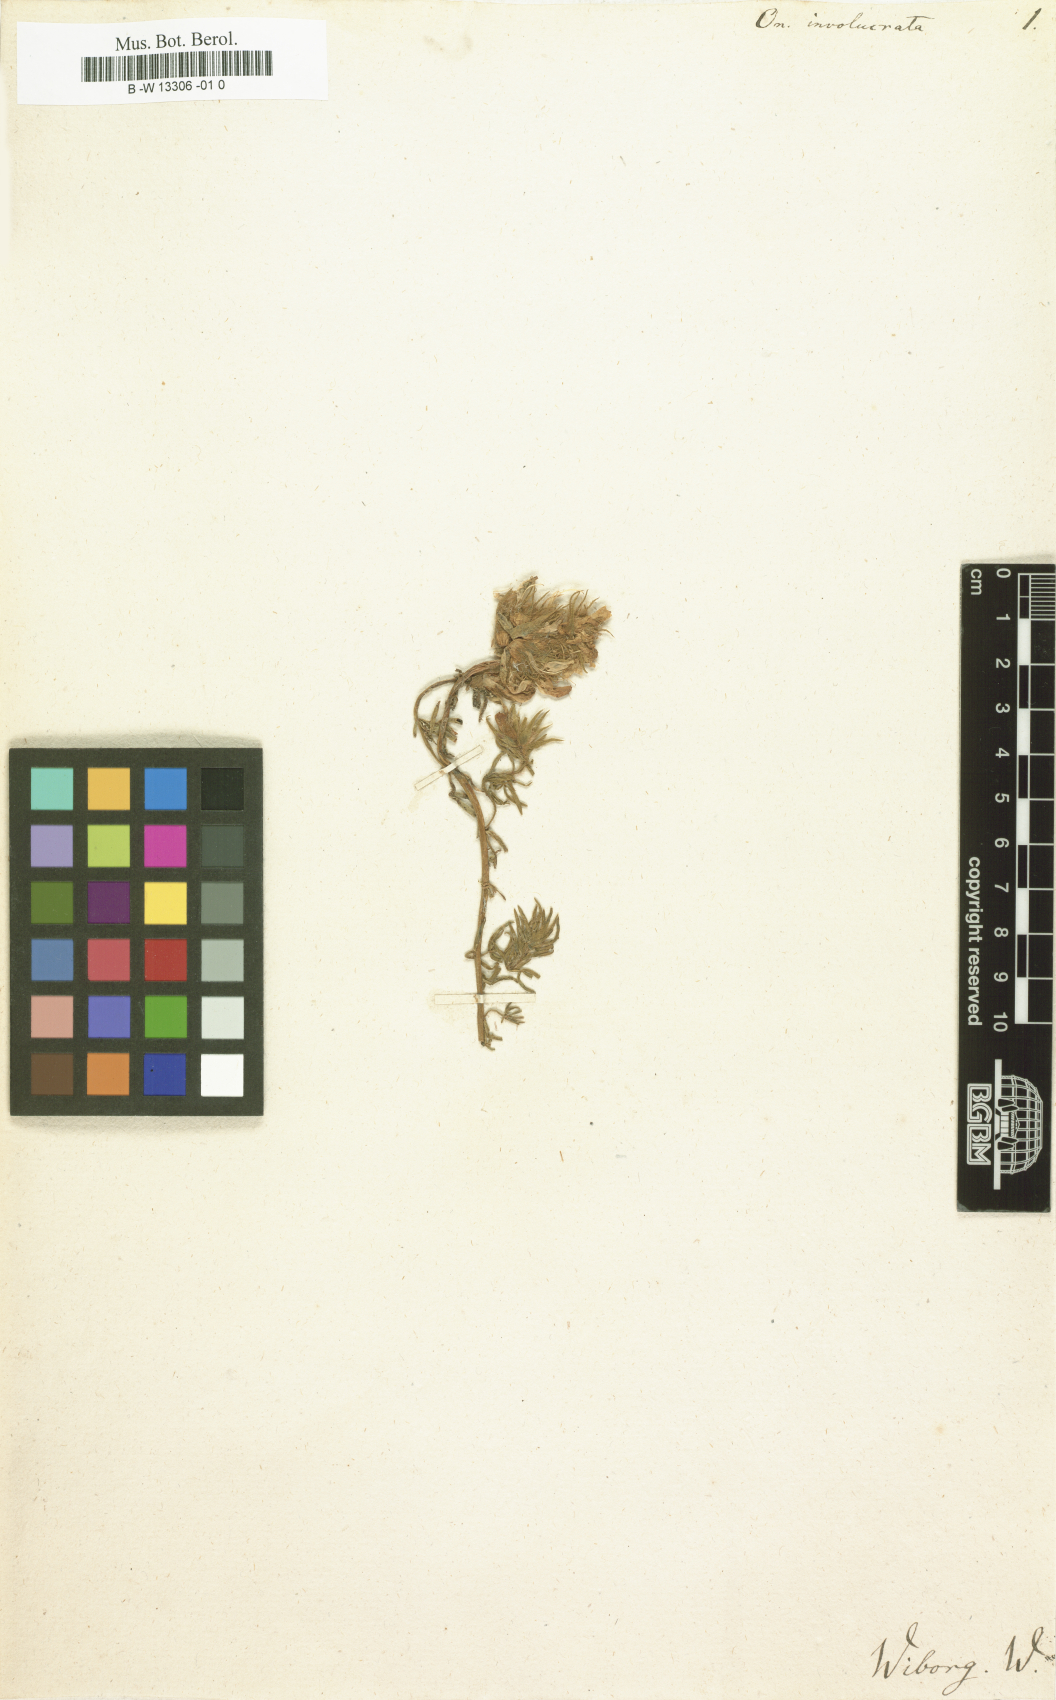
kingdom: Plantae
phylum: Tracheophyta
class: Magnoliopsida
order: Fabales
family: Fabaceae
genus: Lotononis
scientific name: Lotononis involucrata
